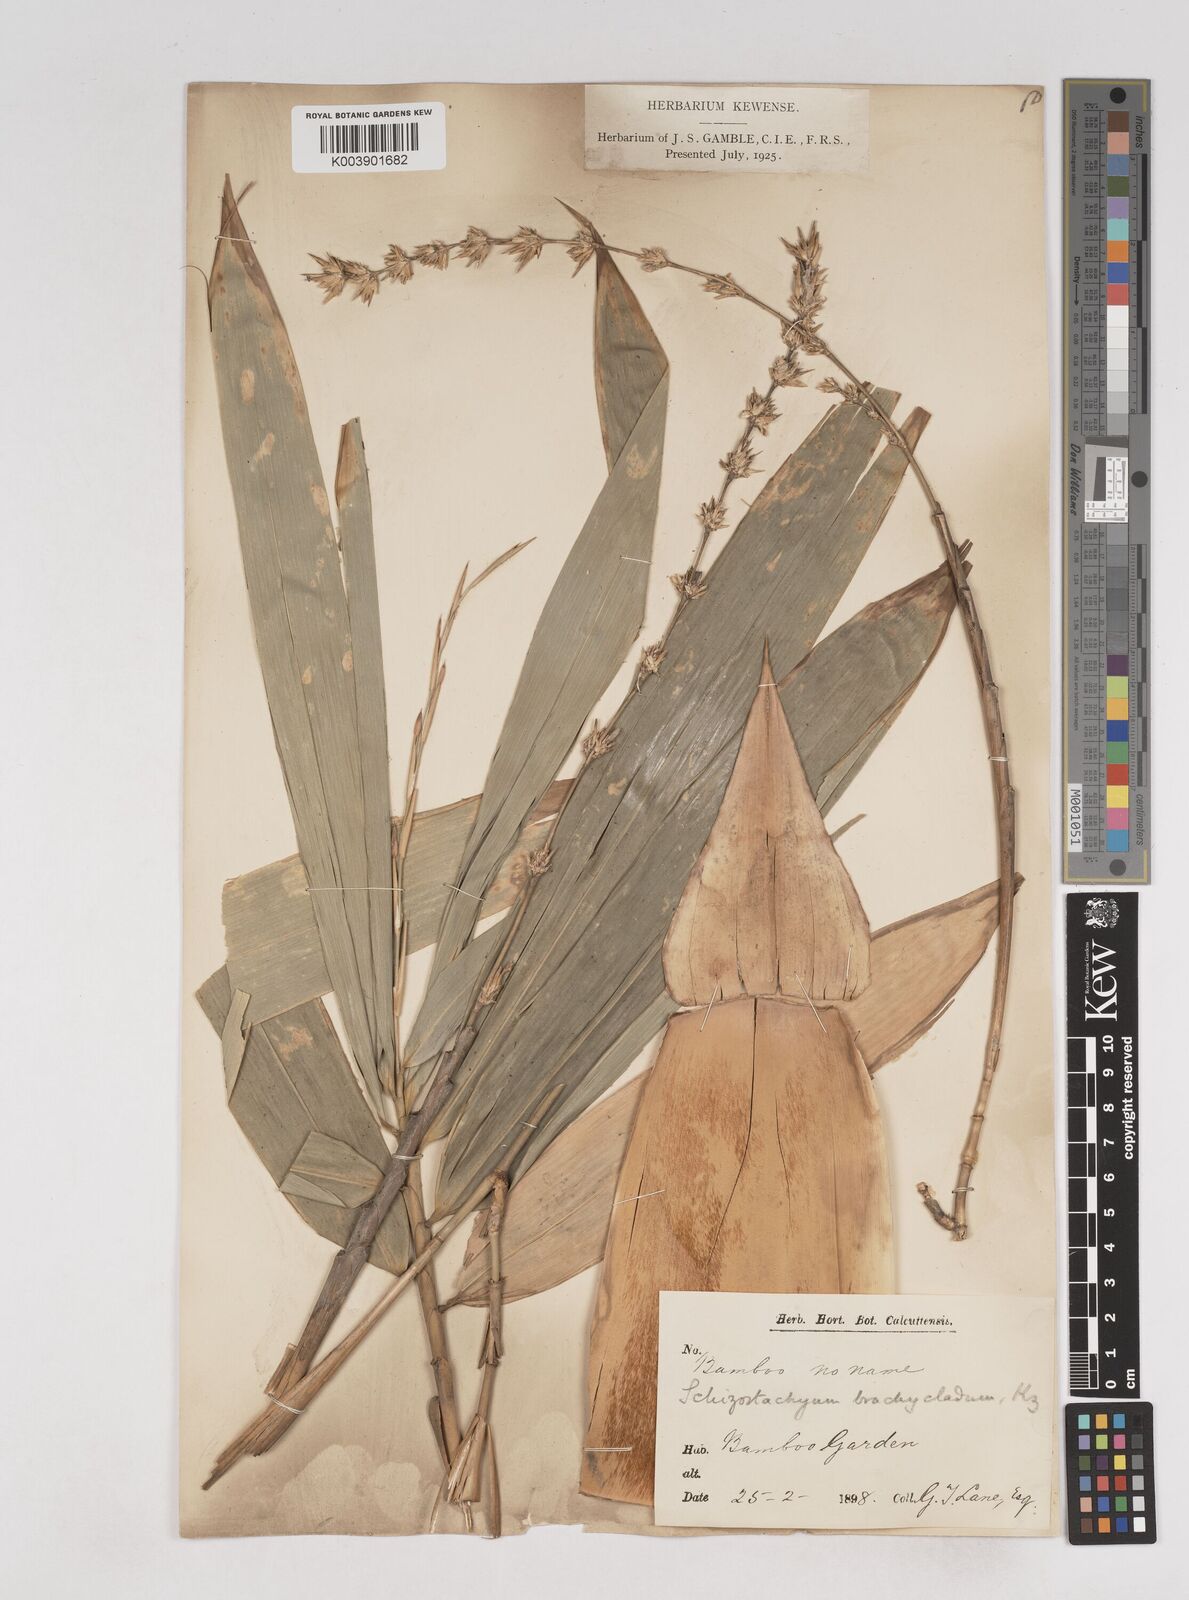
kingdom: Plantae
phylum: Tracheophyta
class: Liliopsida
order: Poales
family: Poaceae
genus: Schizostachyum
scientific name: Schizostachyum brachycladum
